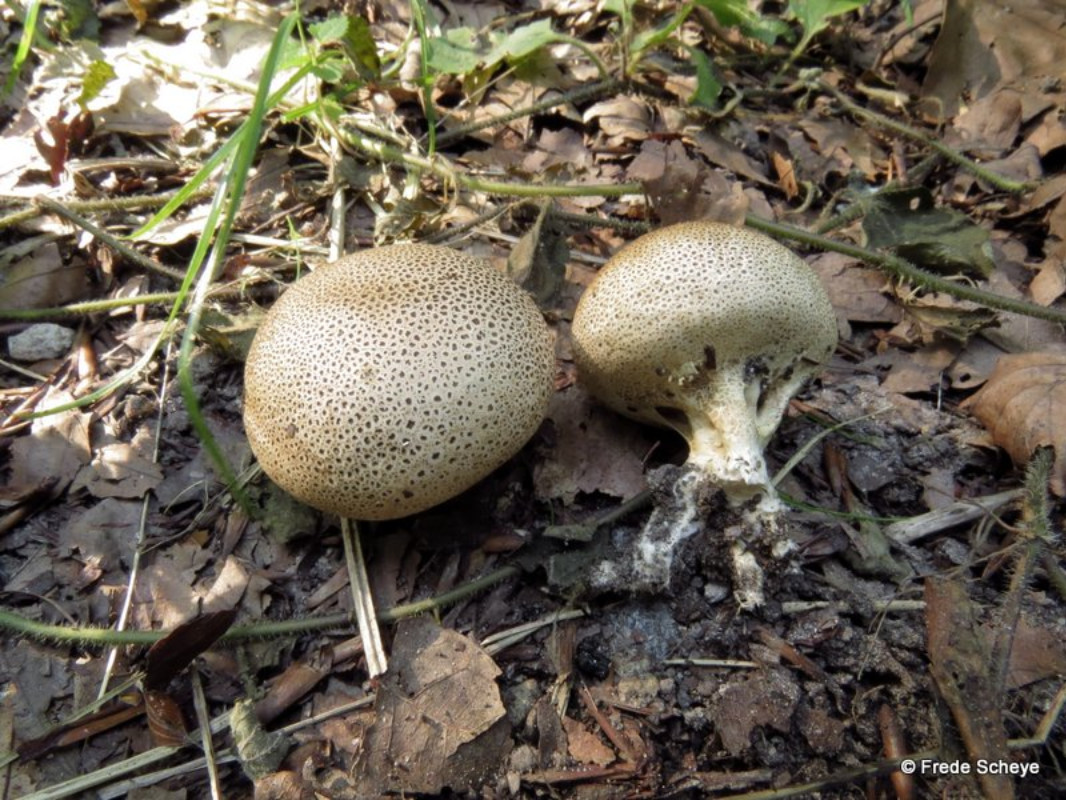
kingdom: Fungi
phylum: Basidiomycota
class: Agaricomycetes
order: Boletales
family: Sclerodermataceae
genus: Scleroderma
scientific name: Scleroderma verrucosum
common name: stilket bruskbold
